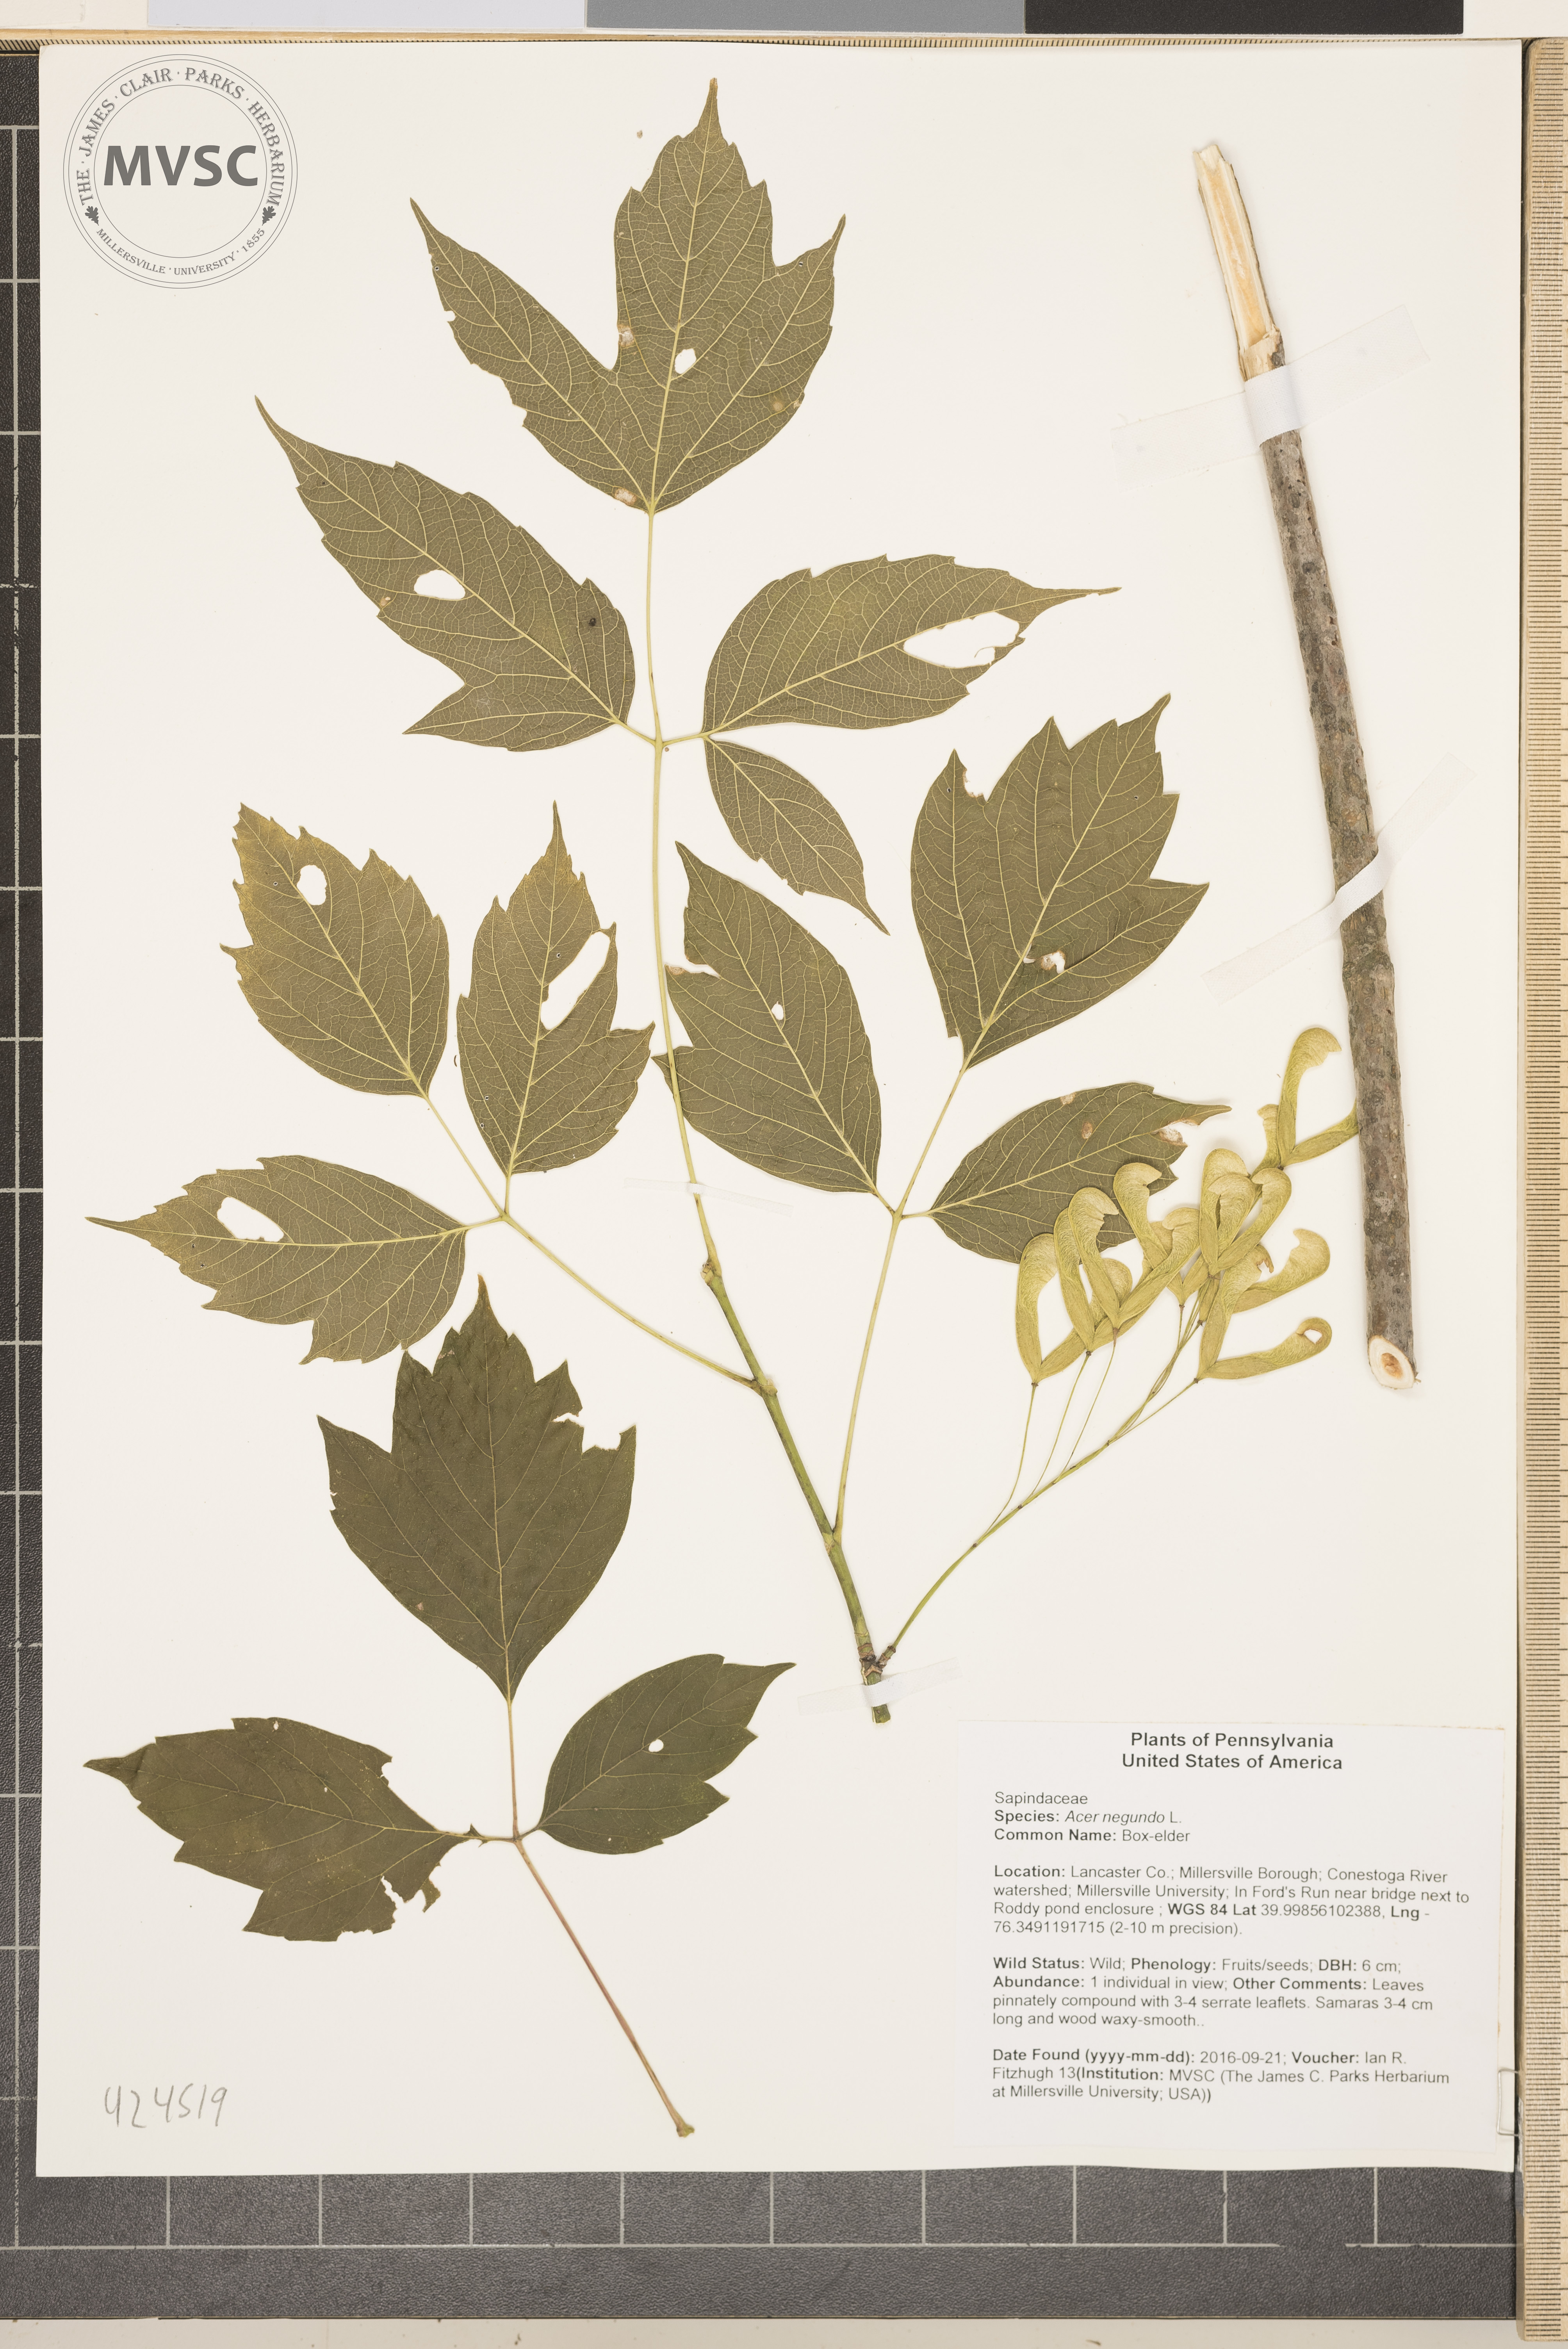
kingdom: Plantae
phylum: Tracheophyta
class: Magnoliopsida
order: Sapindales
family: Sapindaceae
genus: Acer
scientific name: Acer negundo
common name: Box-elder
